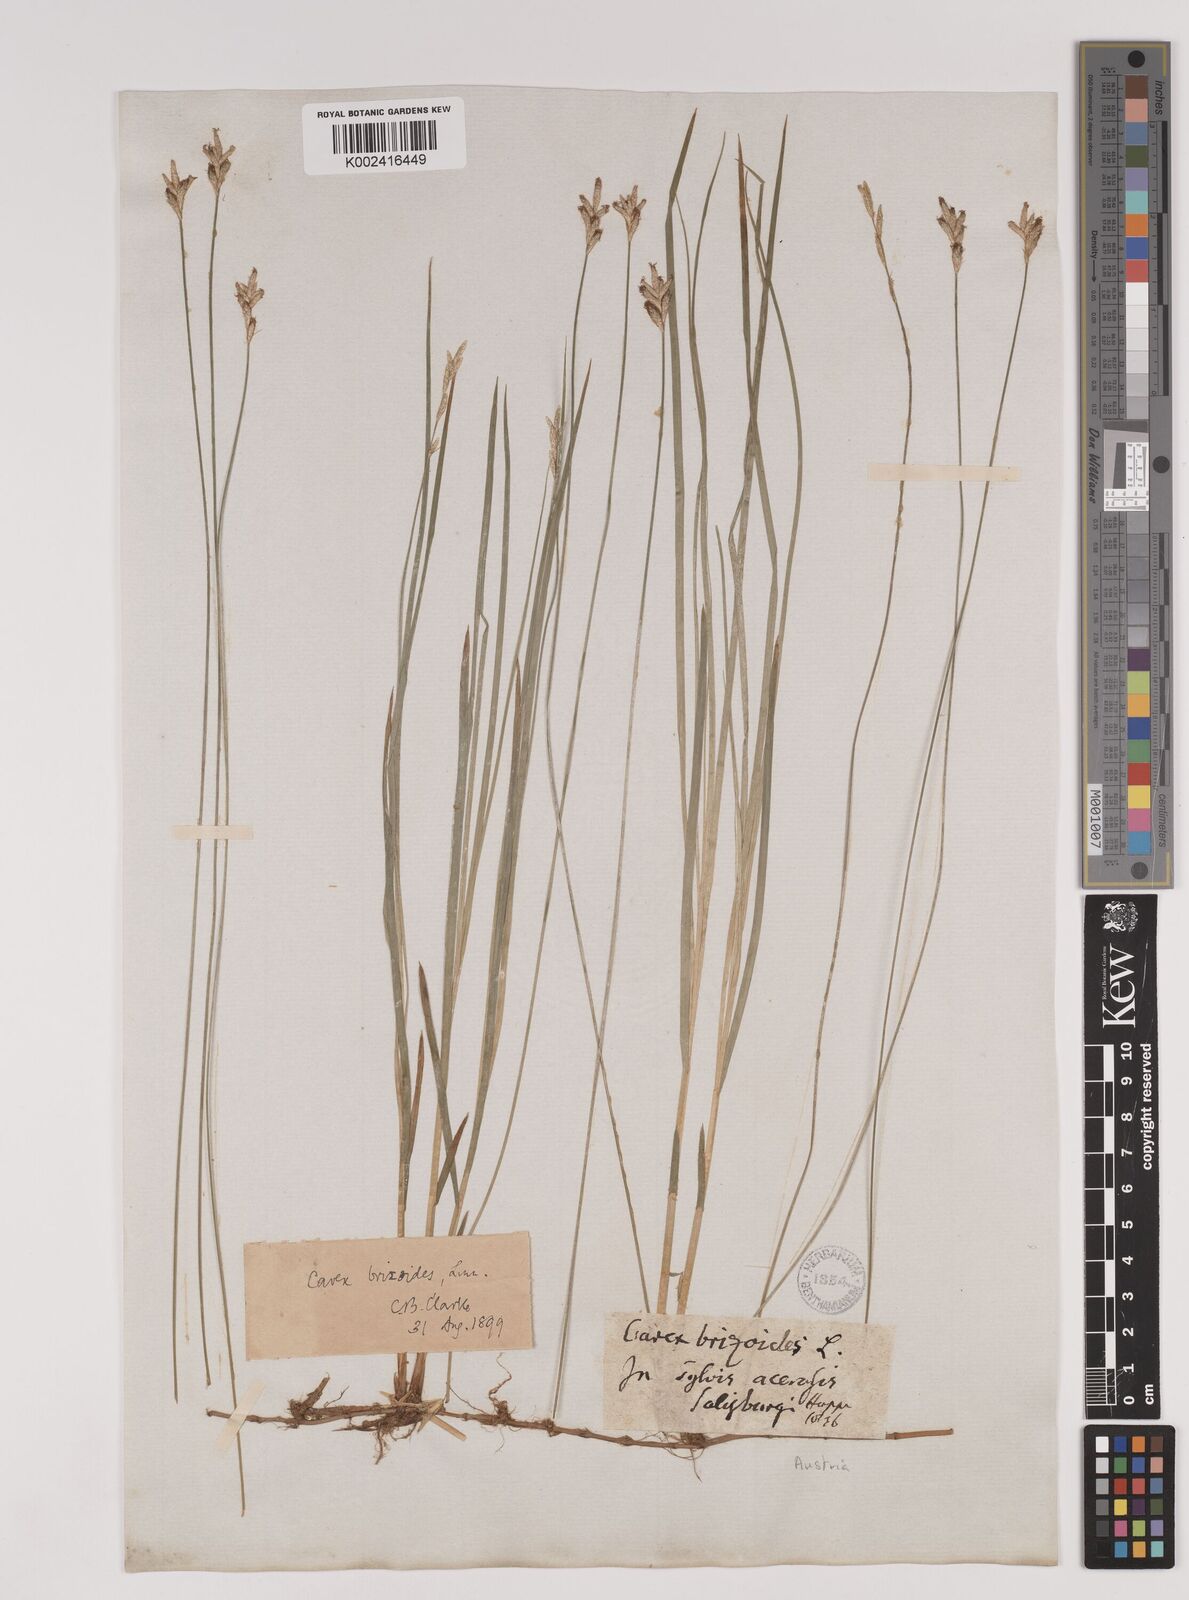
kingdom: Plantae
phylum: Tracheophyta
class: Liliopsida
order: Poales
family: Cyperaceae
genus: Carex
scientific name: Carex brizoides
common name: Quaking-grass sedge
